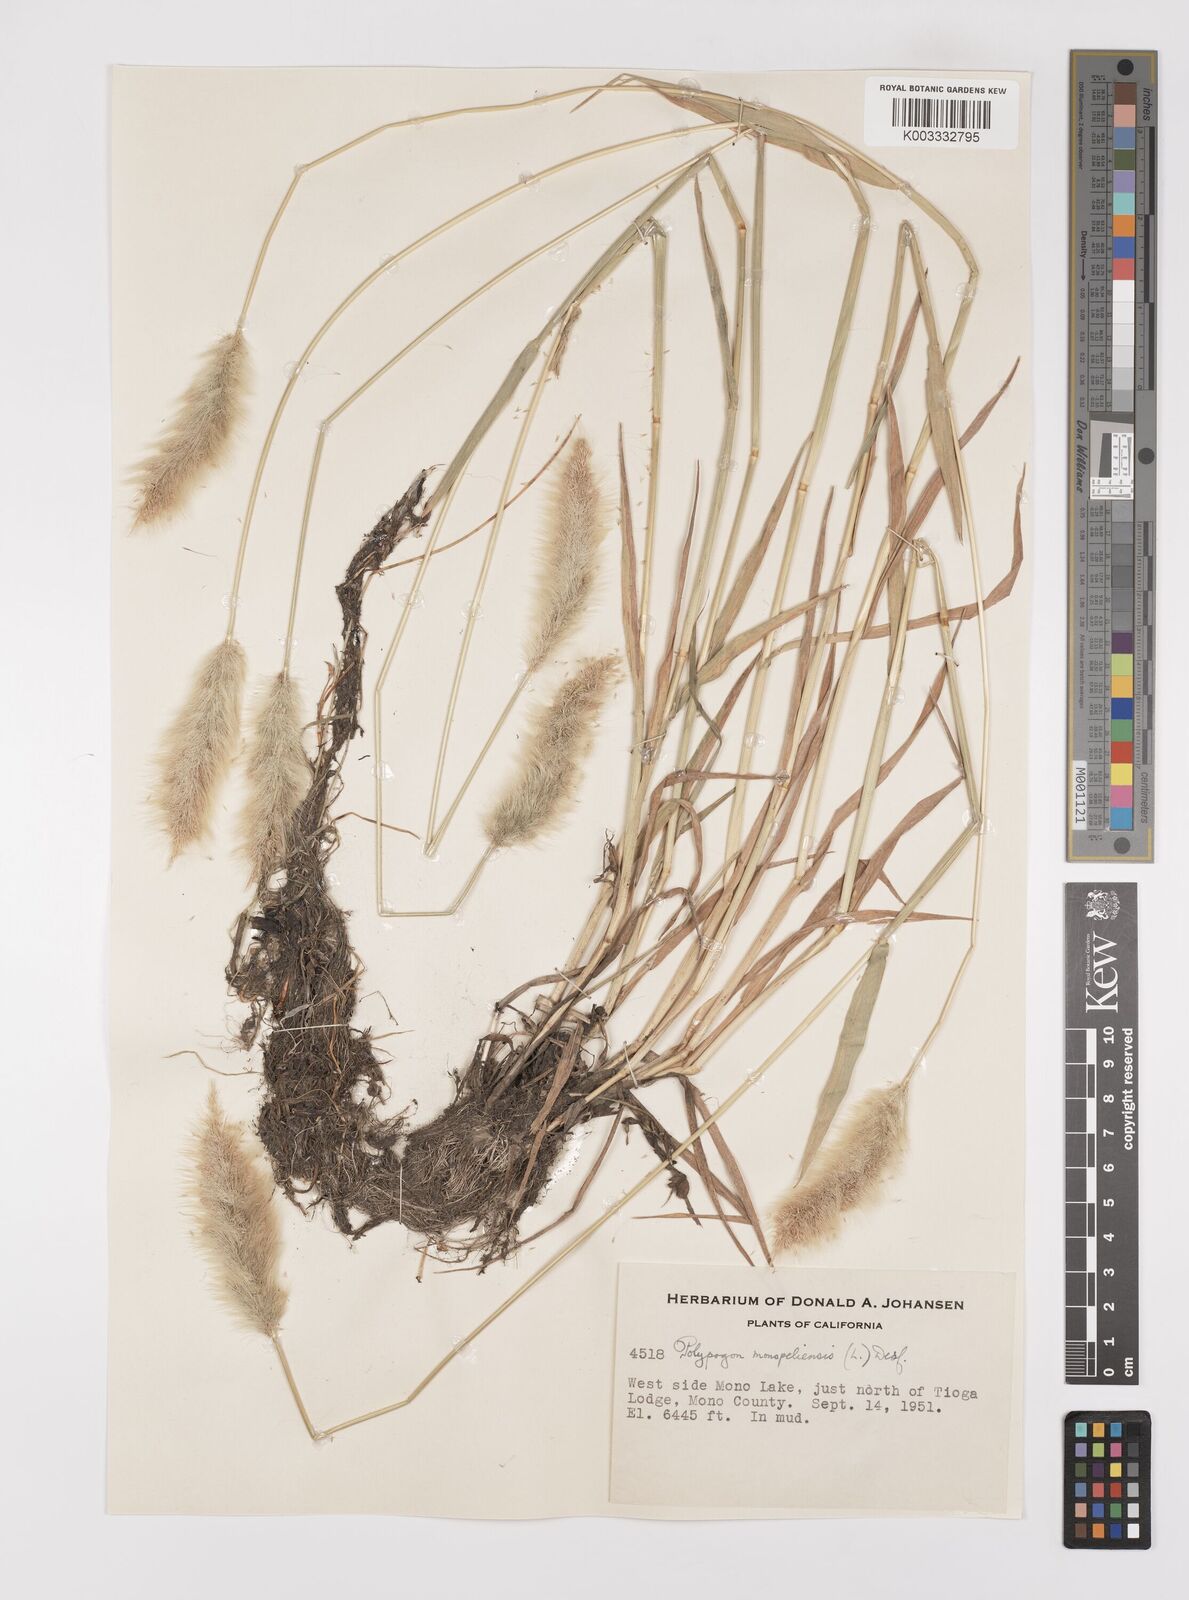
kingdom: Plantae
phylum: Tracheophyta
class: Liliopsida
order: Poales
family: Poaceae
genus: Polypogon
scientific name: Polypogon monspeliensis
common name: Annual rabbitsfoot grass
